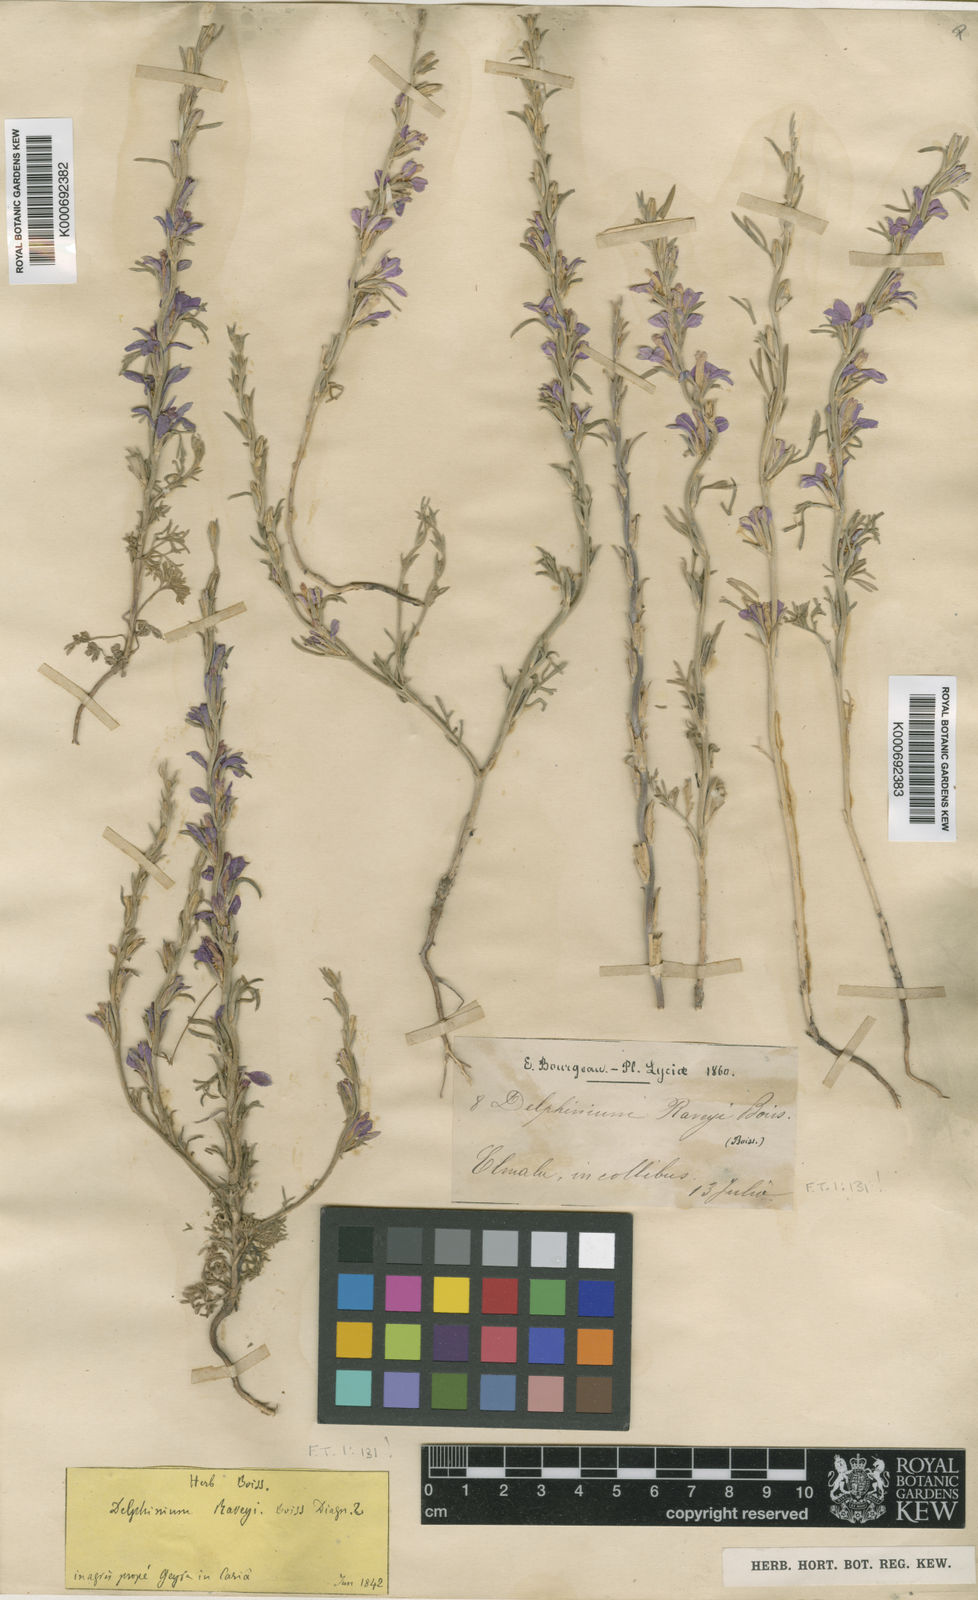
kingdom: Plantae
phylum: Tracheophyta
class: Magnoliopsida
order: Ranunculales
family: Ranunculaceae
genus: Delphinium
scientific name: Delphinium
